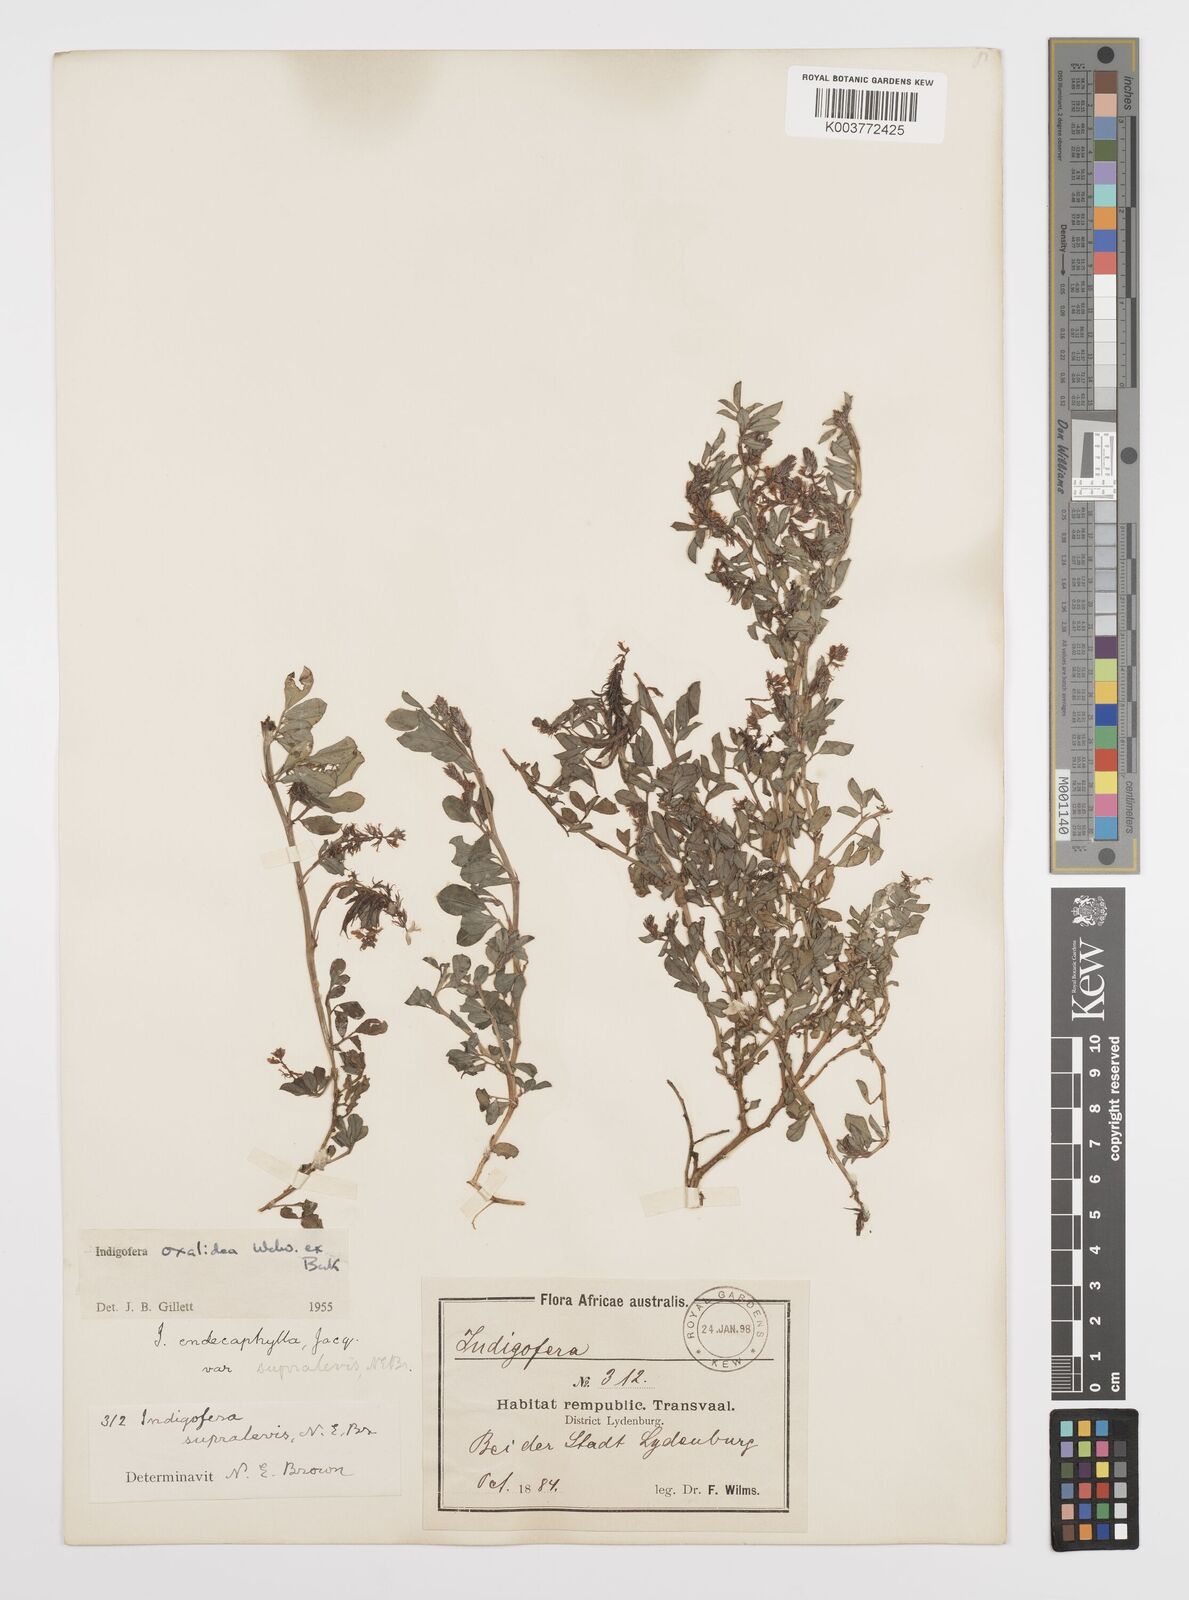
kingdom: Plantae
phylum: Tracheophyta
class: Magnoliopsida
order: Fabales
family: Fabaceae
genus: Indigofera
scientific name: Indigofera oxalidea
